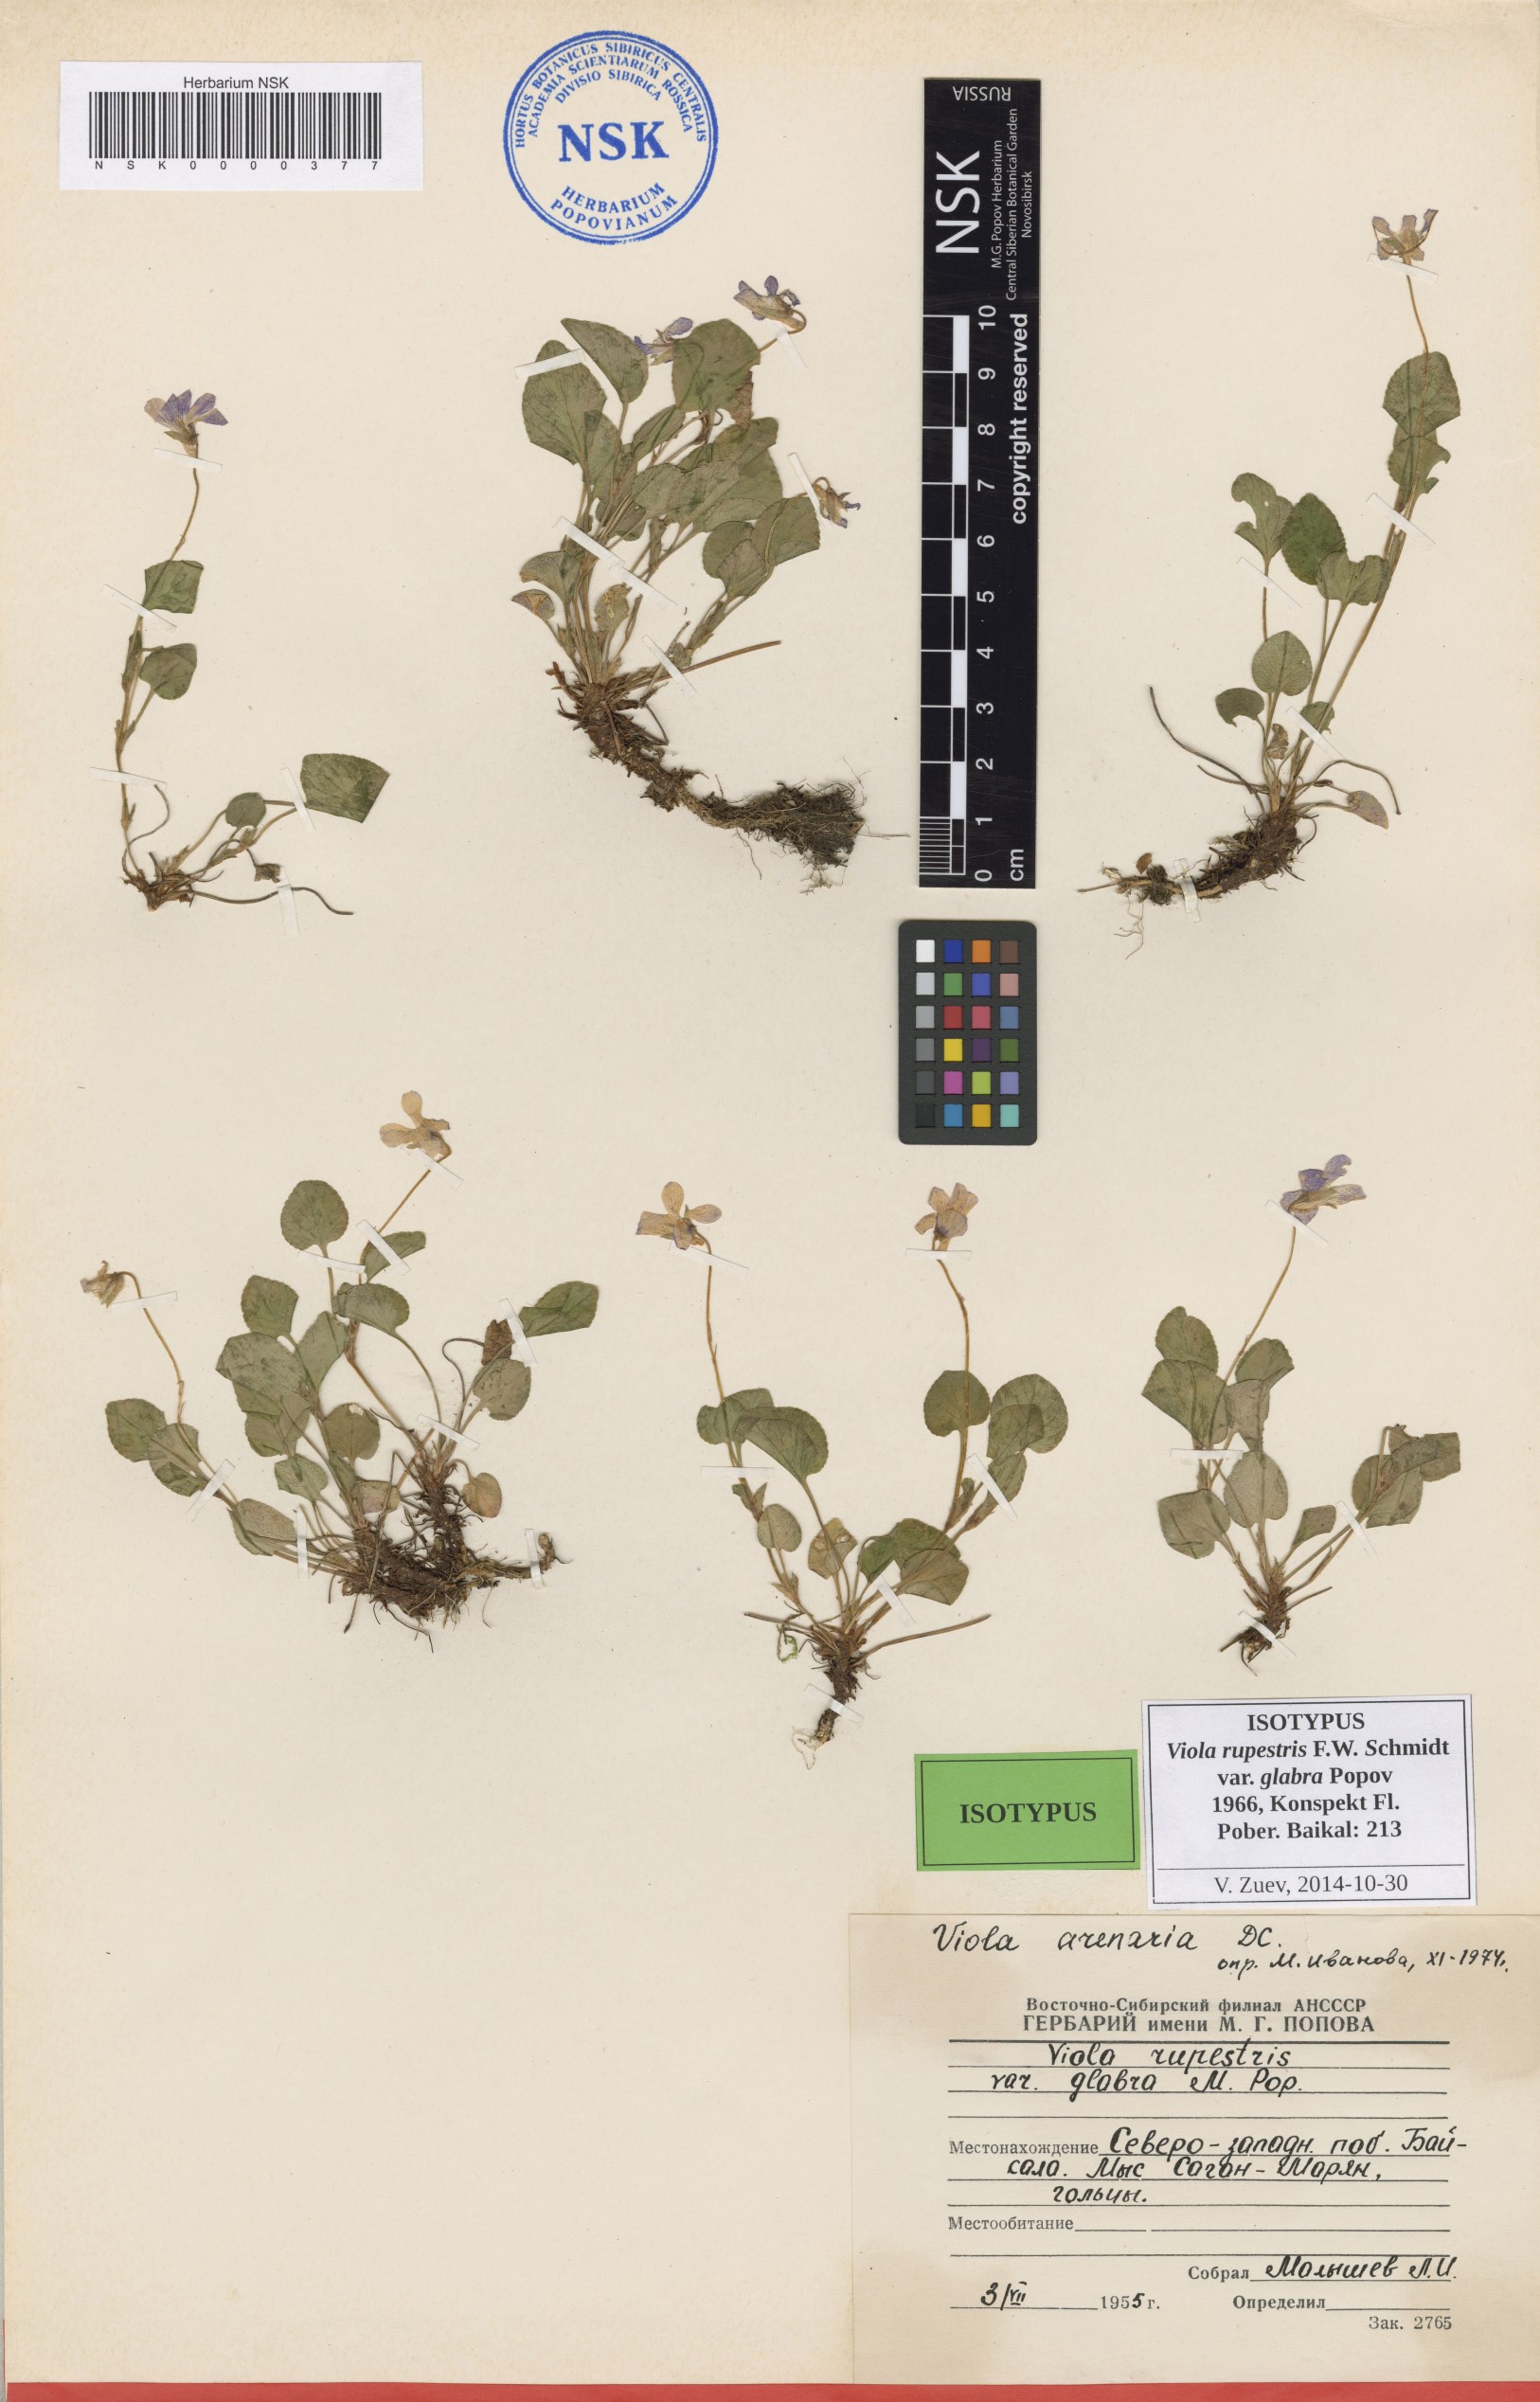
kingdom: Plantae
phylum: Tracheophyta
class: Magnoliopsida
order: Malpighiales
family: Violaceae
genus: Viola
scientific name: Viola rupestris
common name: Teesdale violet
